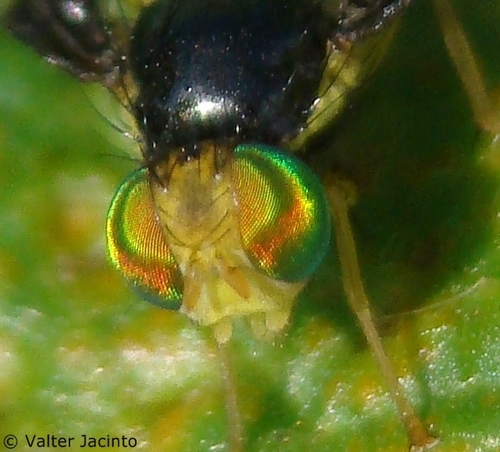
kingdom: Animalia
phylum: Arthropoda
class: Insecta
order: Diptera
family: Tephritidae
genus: Euleia
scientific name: Euleia heraclei
